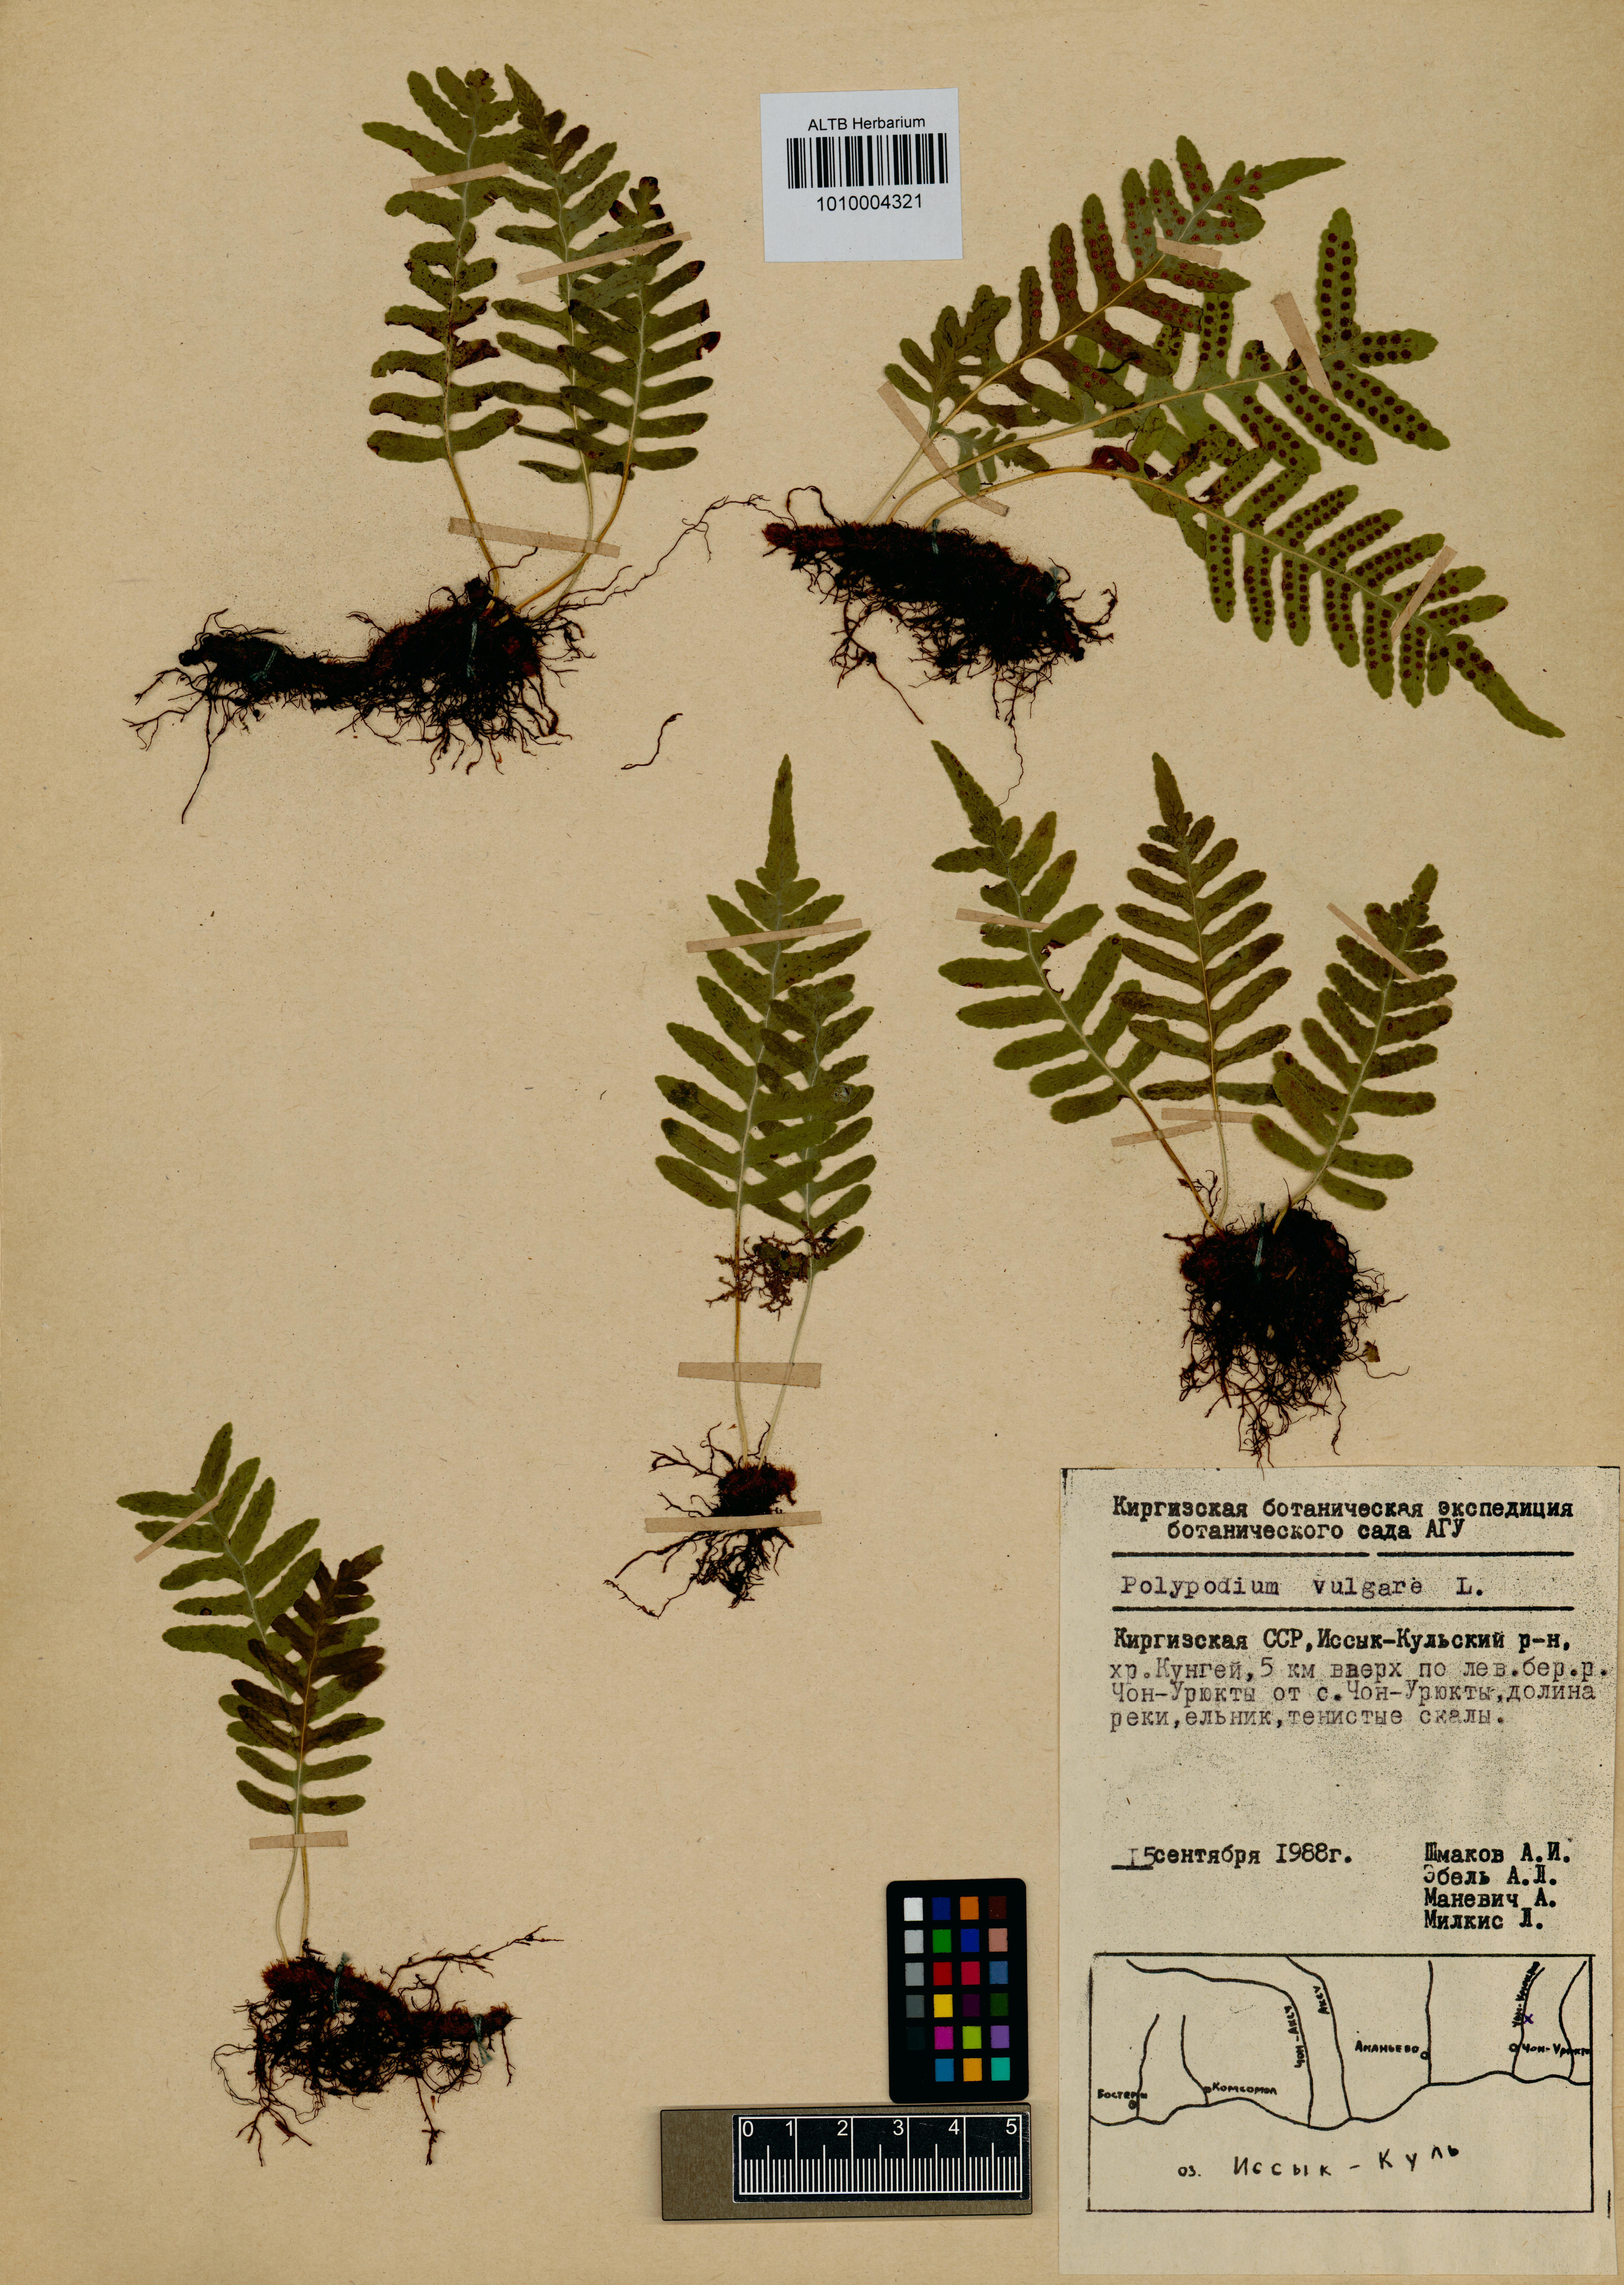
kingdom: Plantae
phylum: Tracheophyta
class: Polypodiopsida
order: Polypodiales
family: Polypodiaceae
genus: Polypodium
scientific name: Polypodium vulgare
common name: Common polypody
